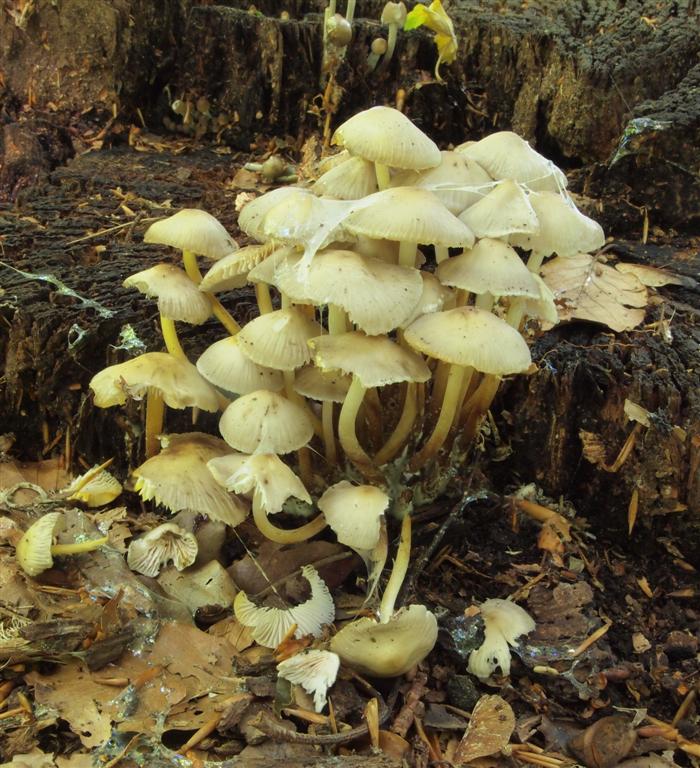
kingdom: Fungi
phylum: Basidiomycota
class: Agaricomycetes
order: Agaricales
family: Mycenaceae
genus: Mycena
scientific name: Mycena inclinata
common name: nikkende huesvamp
